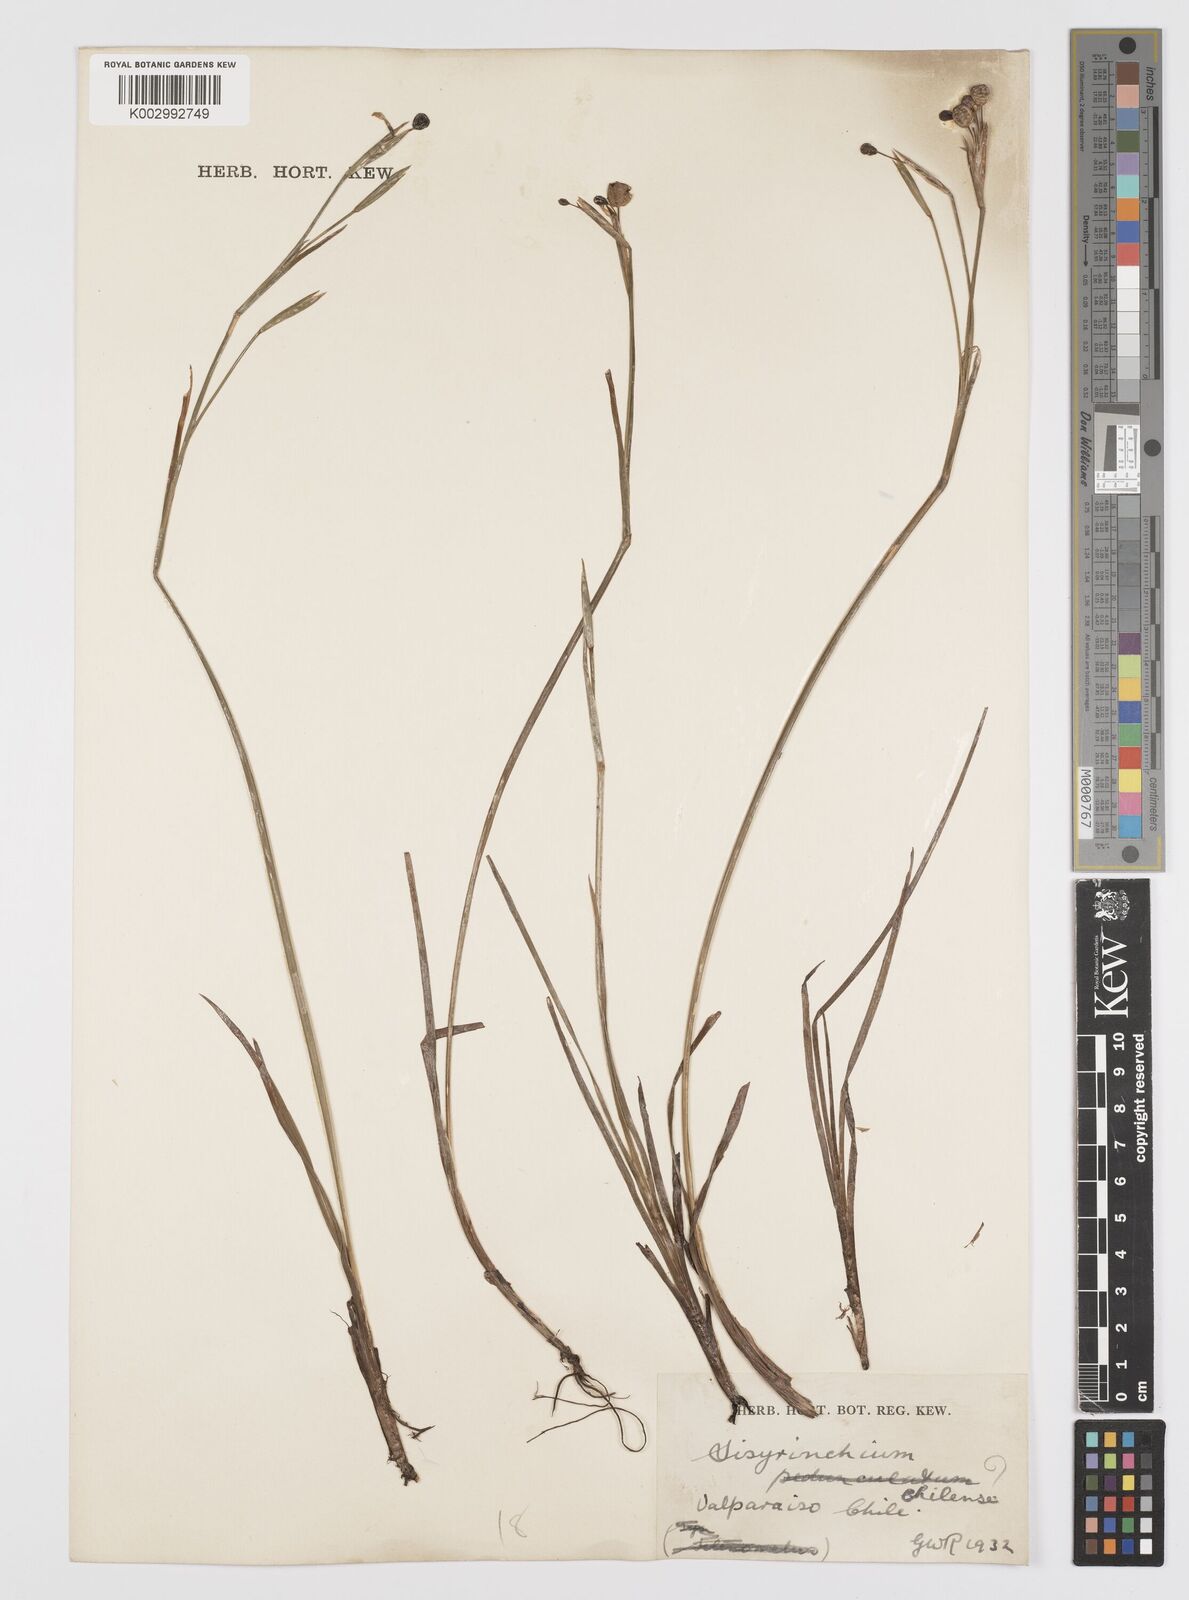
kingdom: Plantae
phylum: Tracheophyta
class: Liliopsida
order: Asparagales
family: Iridaceae
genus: Sisyrinchium
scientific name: Sisyrinchium chilense
